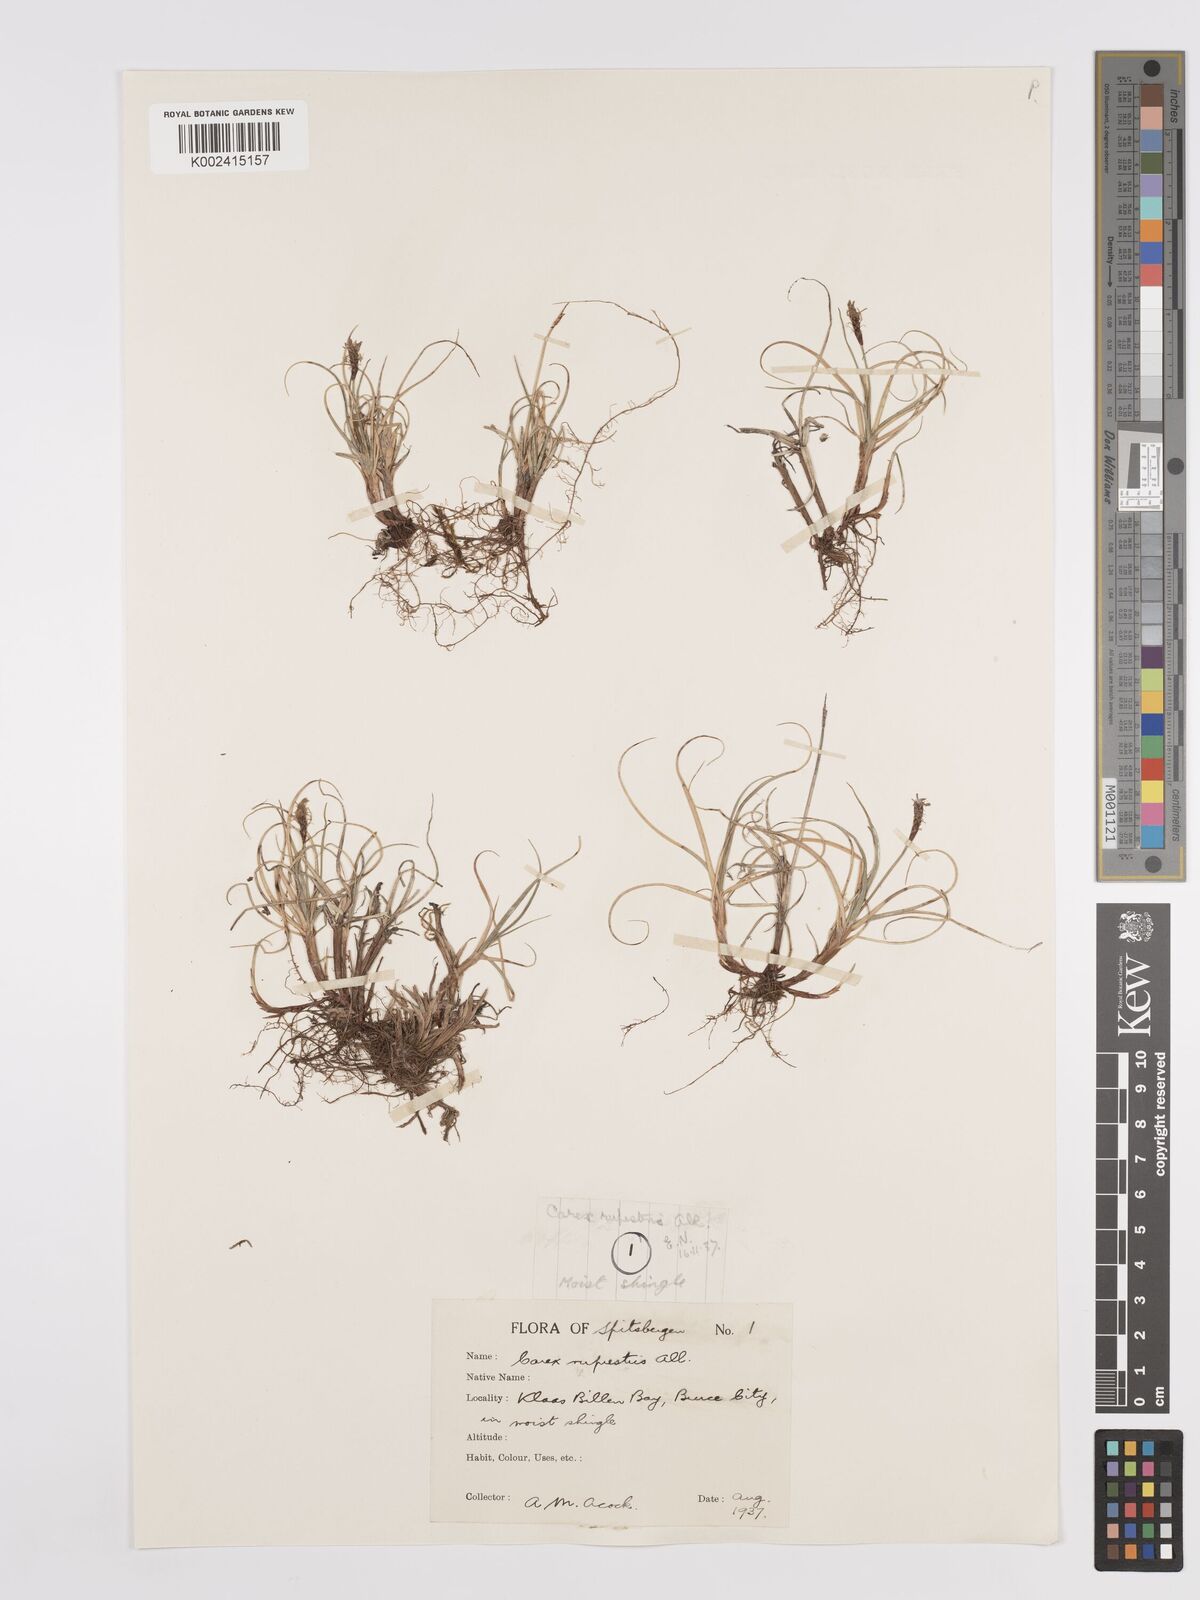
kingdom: Plantae
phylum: Tracheophyta
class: Liliopsida
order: Poales
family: Cyperaceae
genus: Carex
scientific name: Carex rupestris
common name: Rock sedge
